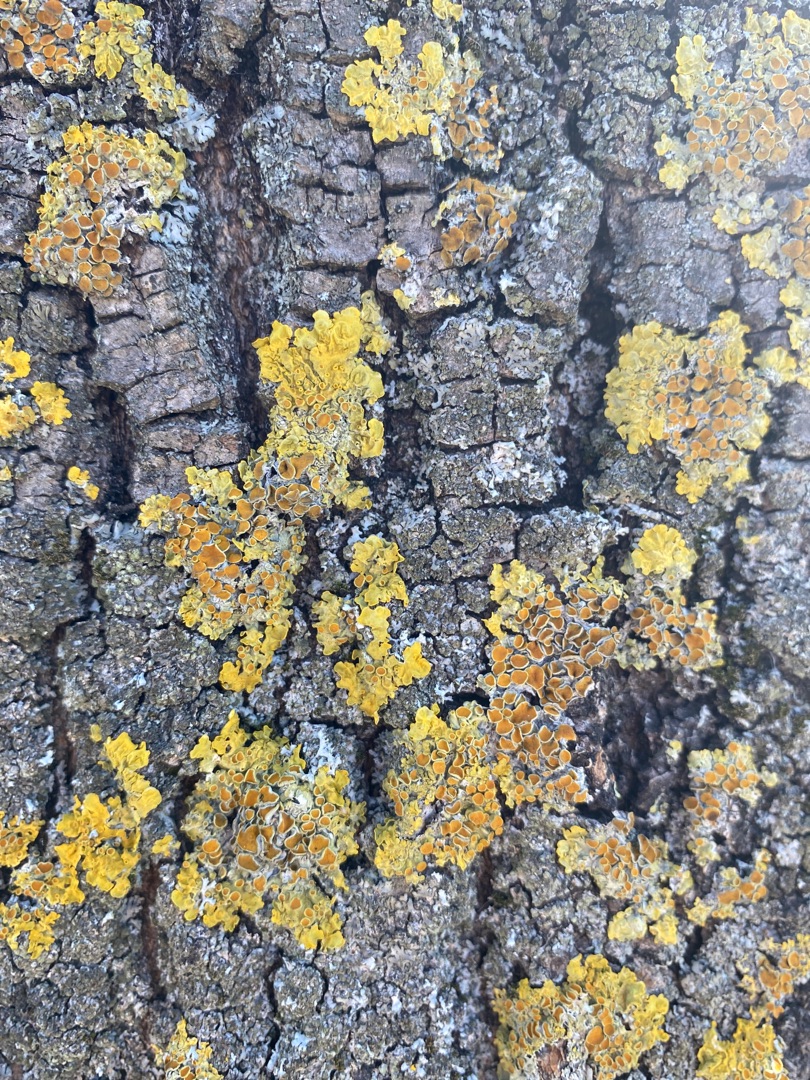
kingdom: Fungi
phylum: Ascomycota
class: Lecanoromycetes
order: Teloschistales
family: Teloschistaceae
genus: Xanthoria
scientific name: Xanthoria parietina
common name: Almindelig væggelav
